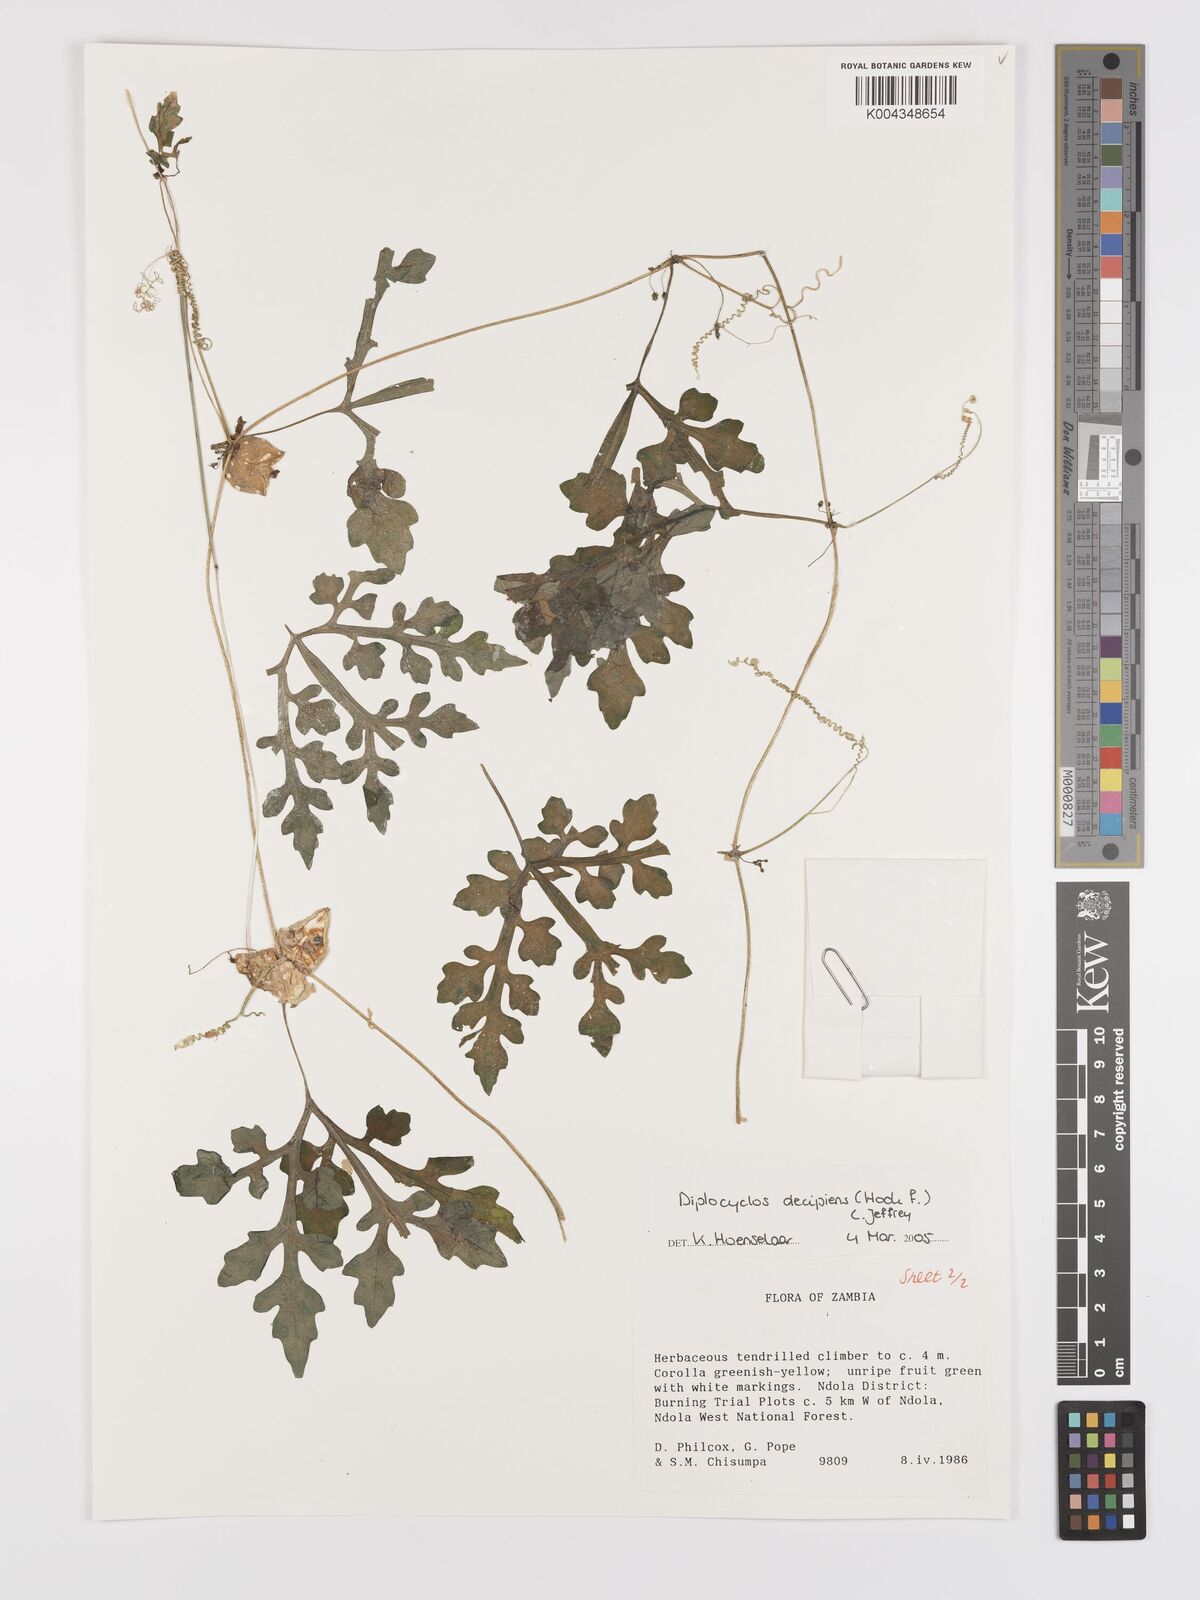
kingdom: Plantae
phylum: Tracheophyta
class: Magnoliopsida
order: Cucurbitales
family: Cucurbitaceae
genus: Diplocyclos
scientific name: Diplocyclos decipiens
